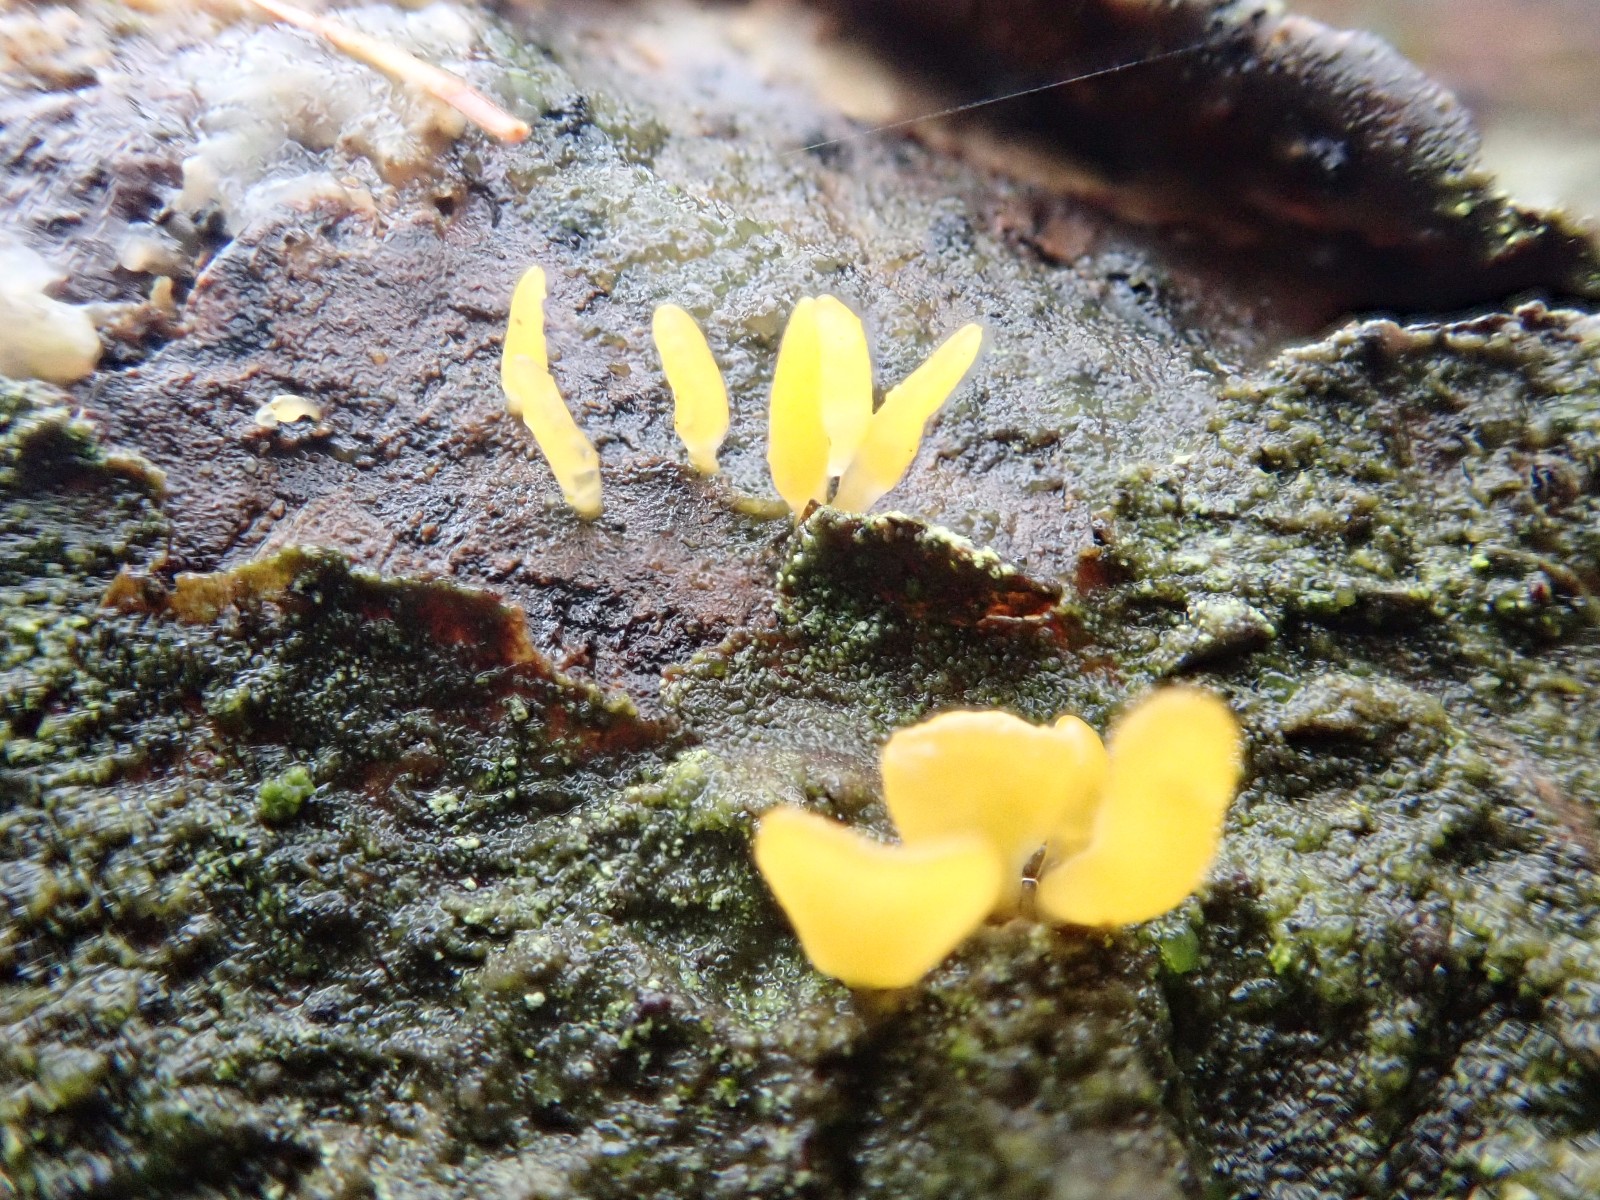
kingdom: Fungi
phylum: Basidiomycota
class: Dacrymycetes
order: Dacrymycetales
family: Dacrymycetaceae
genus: Calocera
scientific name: Calocera cornea
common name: liden guldgaffel
